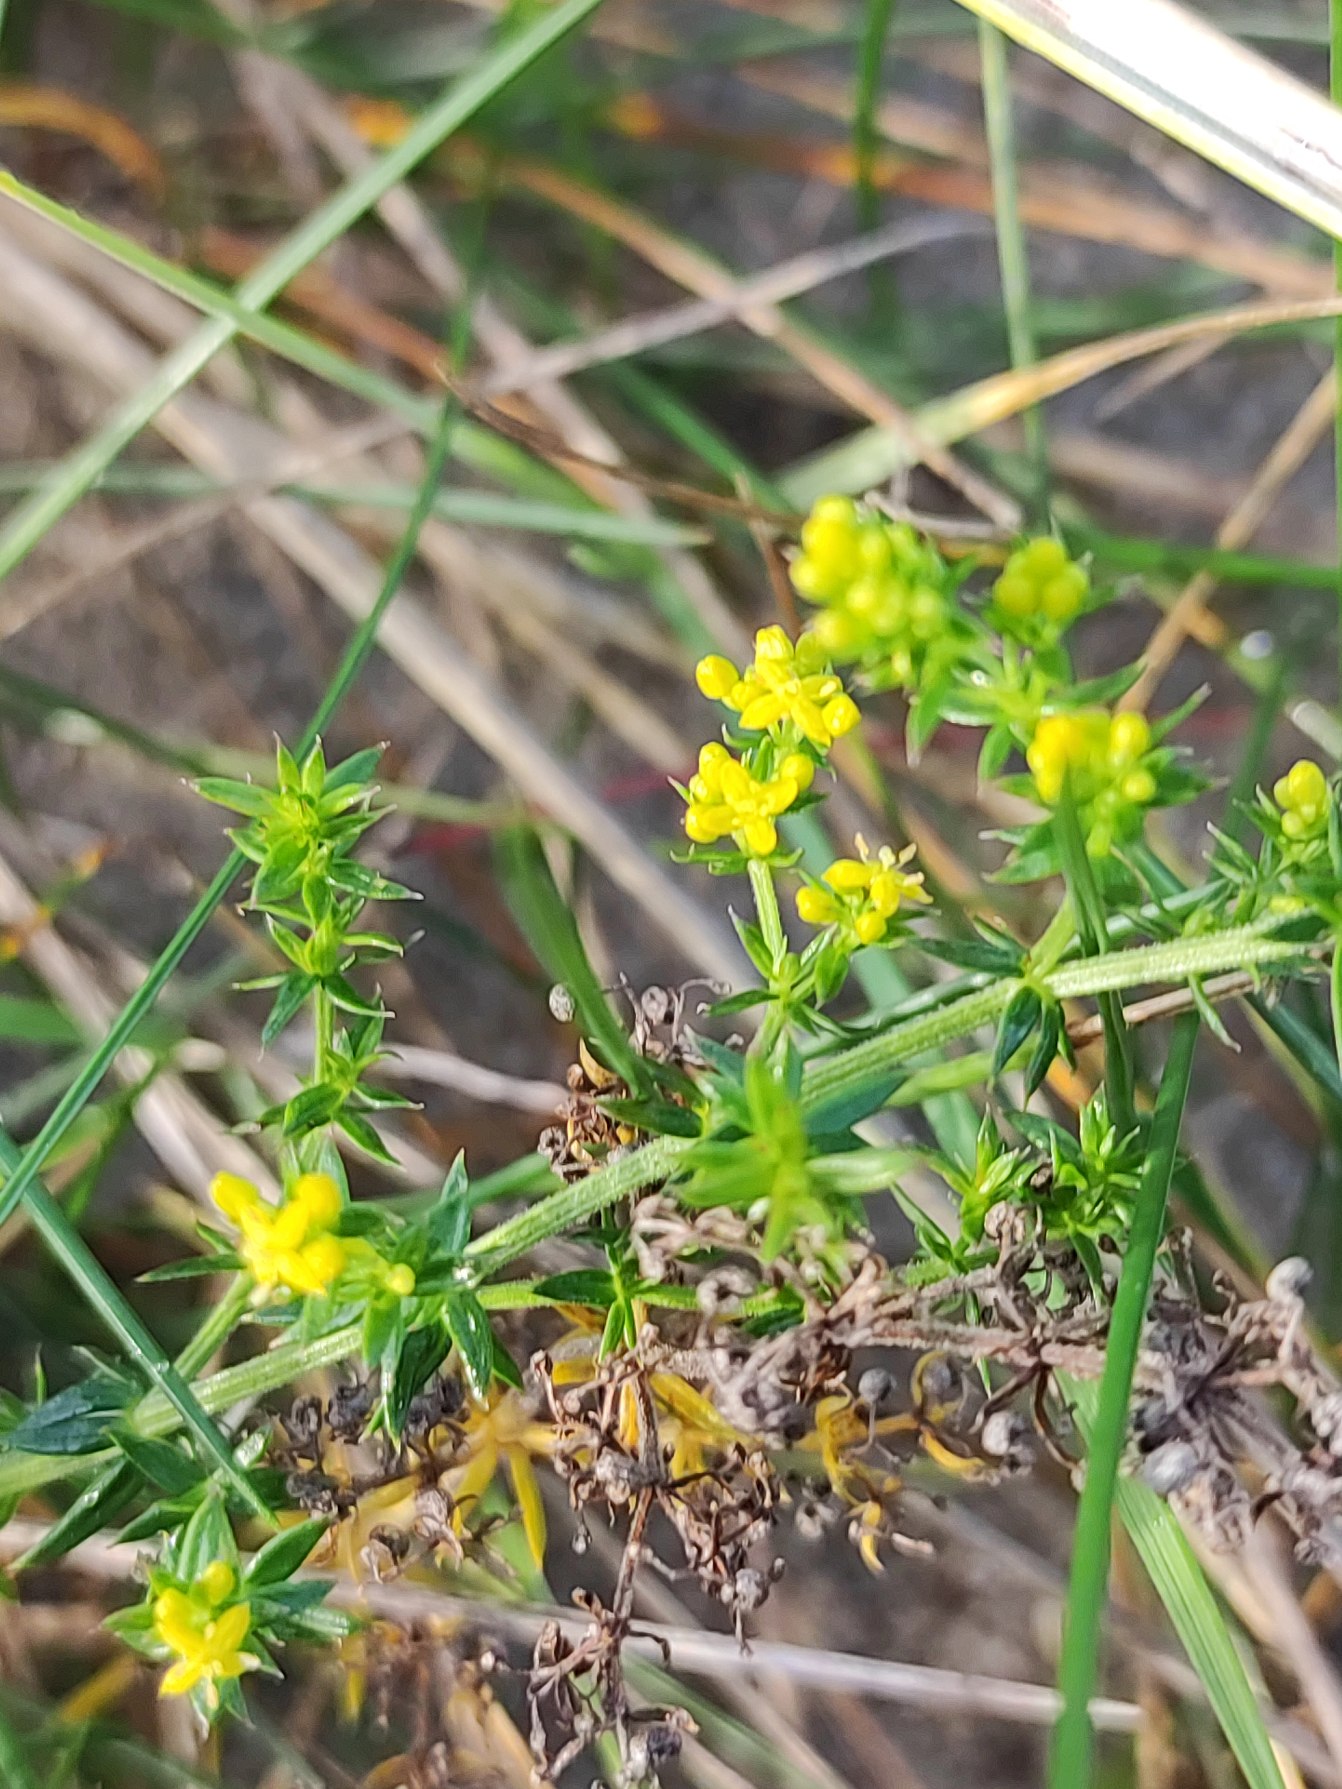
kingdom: Plantae
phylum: Tracheophyta
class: Magnoliopsida
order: Gentianales
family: Rubiaceae
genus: Galium
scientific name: Galium verum
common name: Gul snerre
